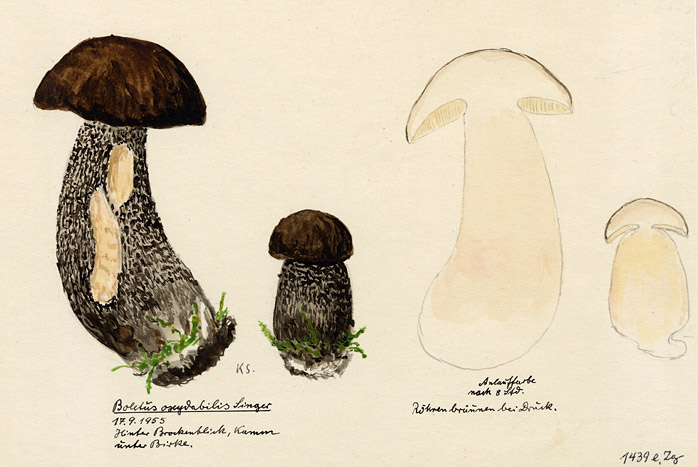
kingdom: Fungi
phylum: Basidiomycota
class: Agaricomycetes
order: Boletales
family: Boletaceae
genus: Leccinum
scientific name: Leccinum scabrum
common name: Blushing bolete
